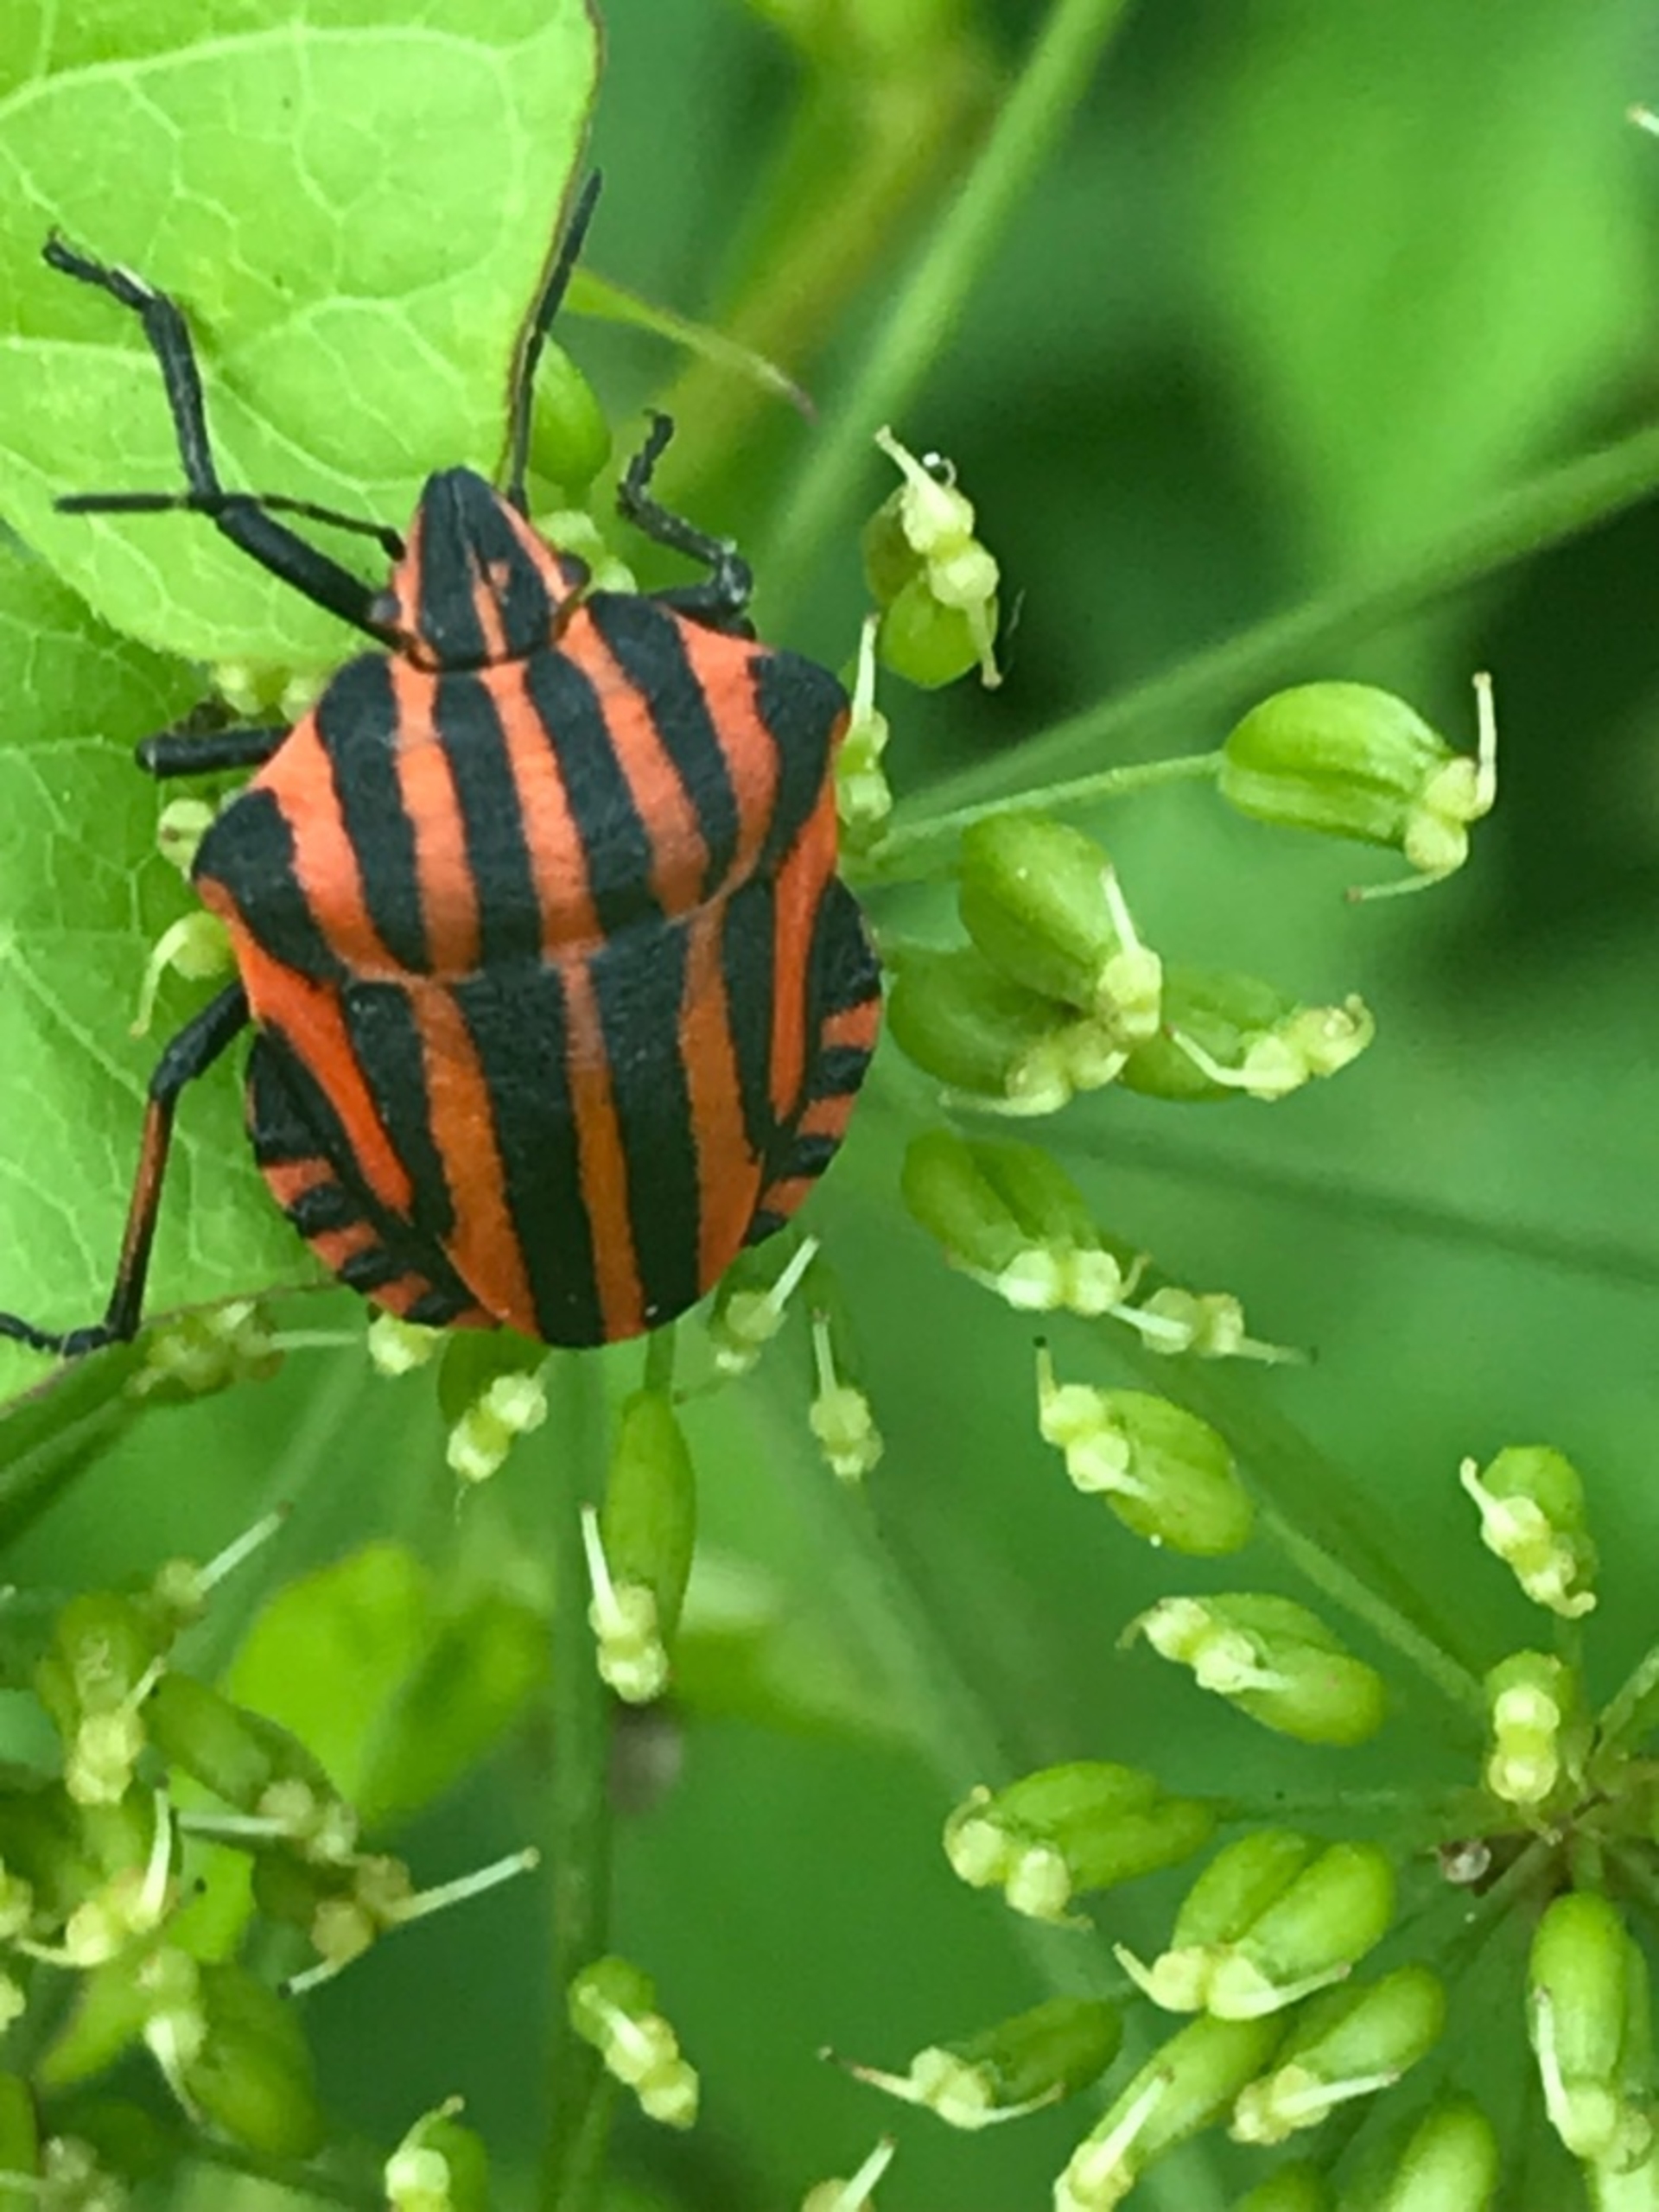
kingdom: Animalia
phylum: Arthropoda
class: Insecta
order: Hemiptera
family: Pentatomidae
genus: Graphosoma
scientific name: Graphosoma italicum
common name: Stribetæge
